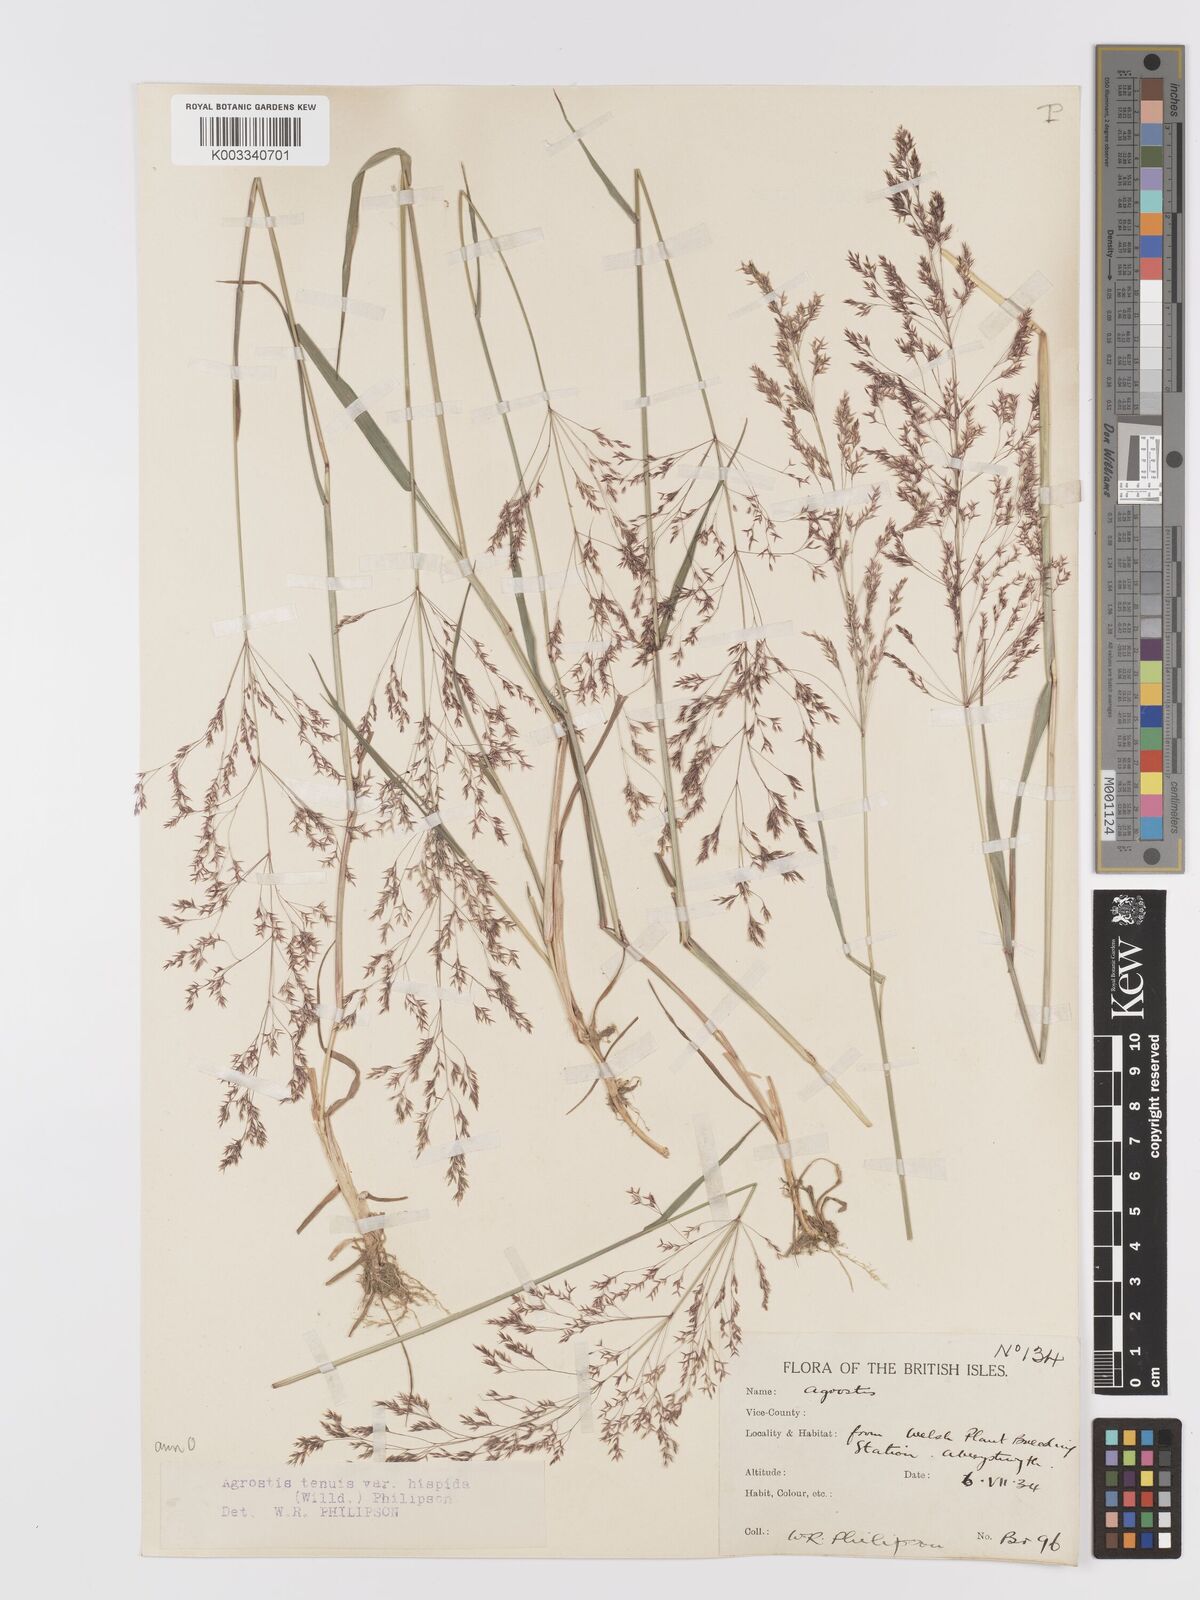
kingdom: Plantae
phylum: Tracheophyta
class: Liliopsida
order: Poales
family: Poaceae
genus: Agrostis
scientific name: Agrostis capillaris
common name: Colonial bentgrass
